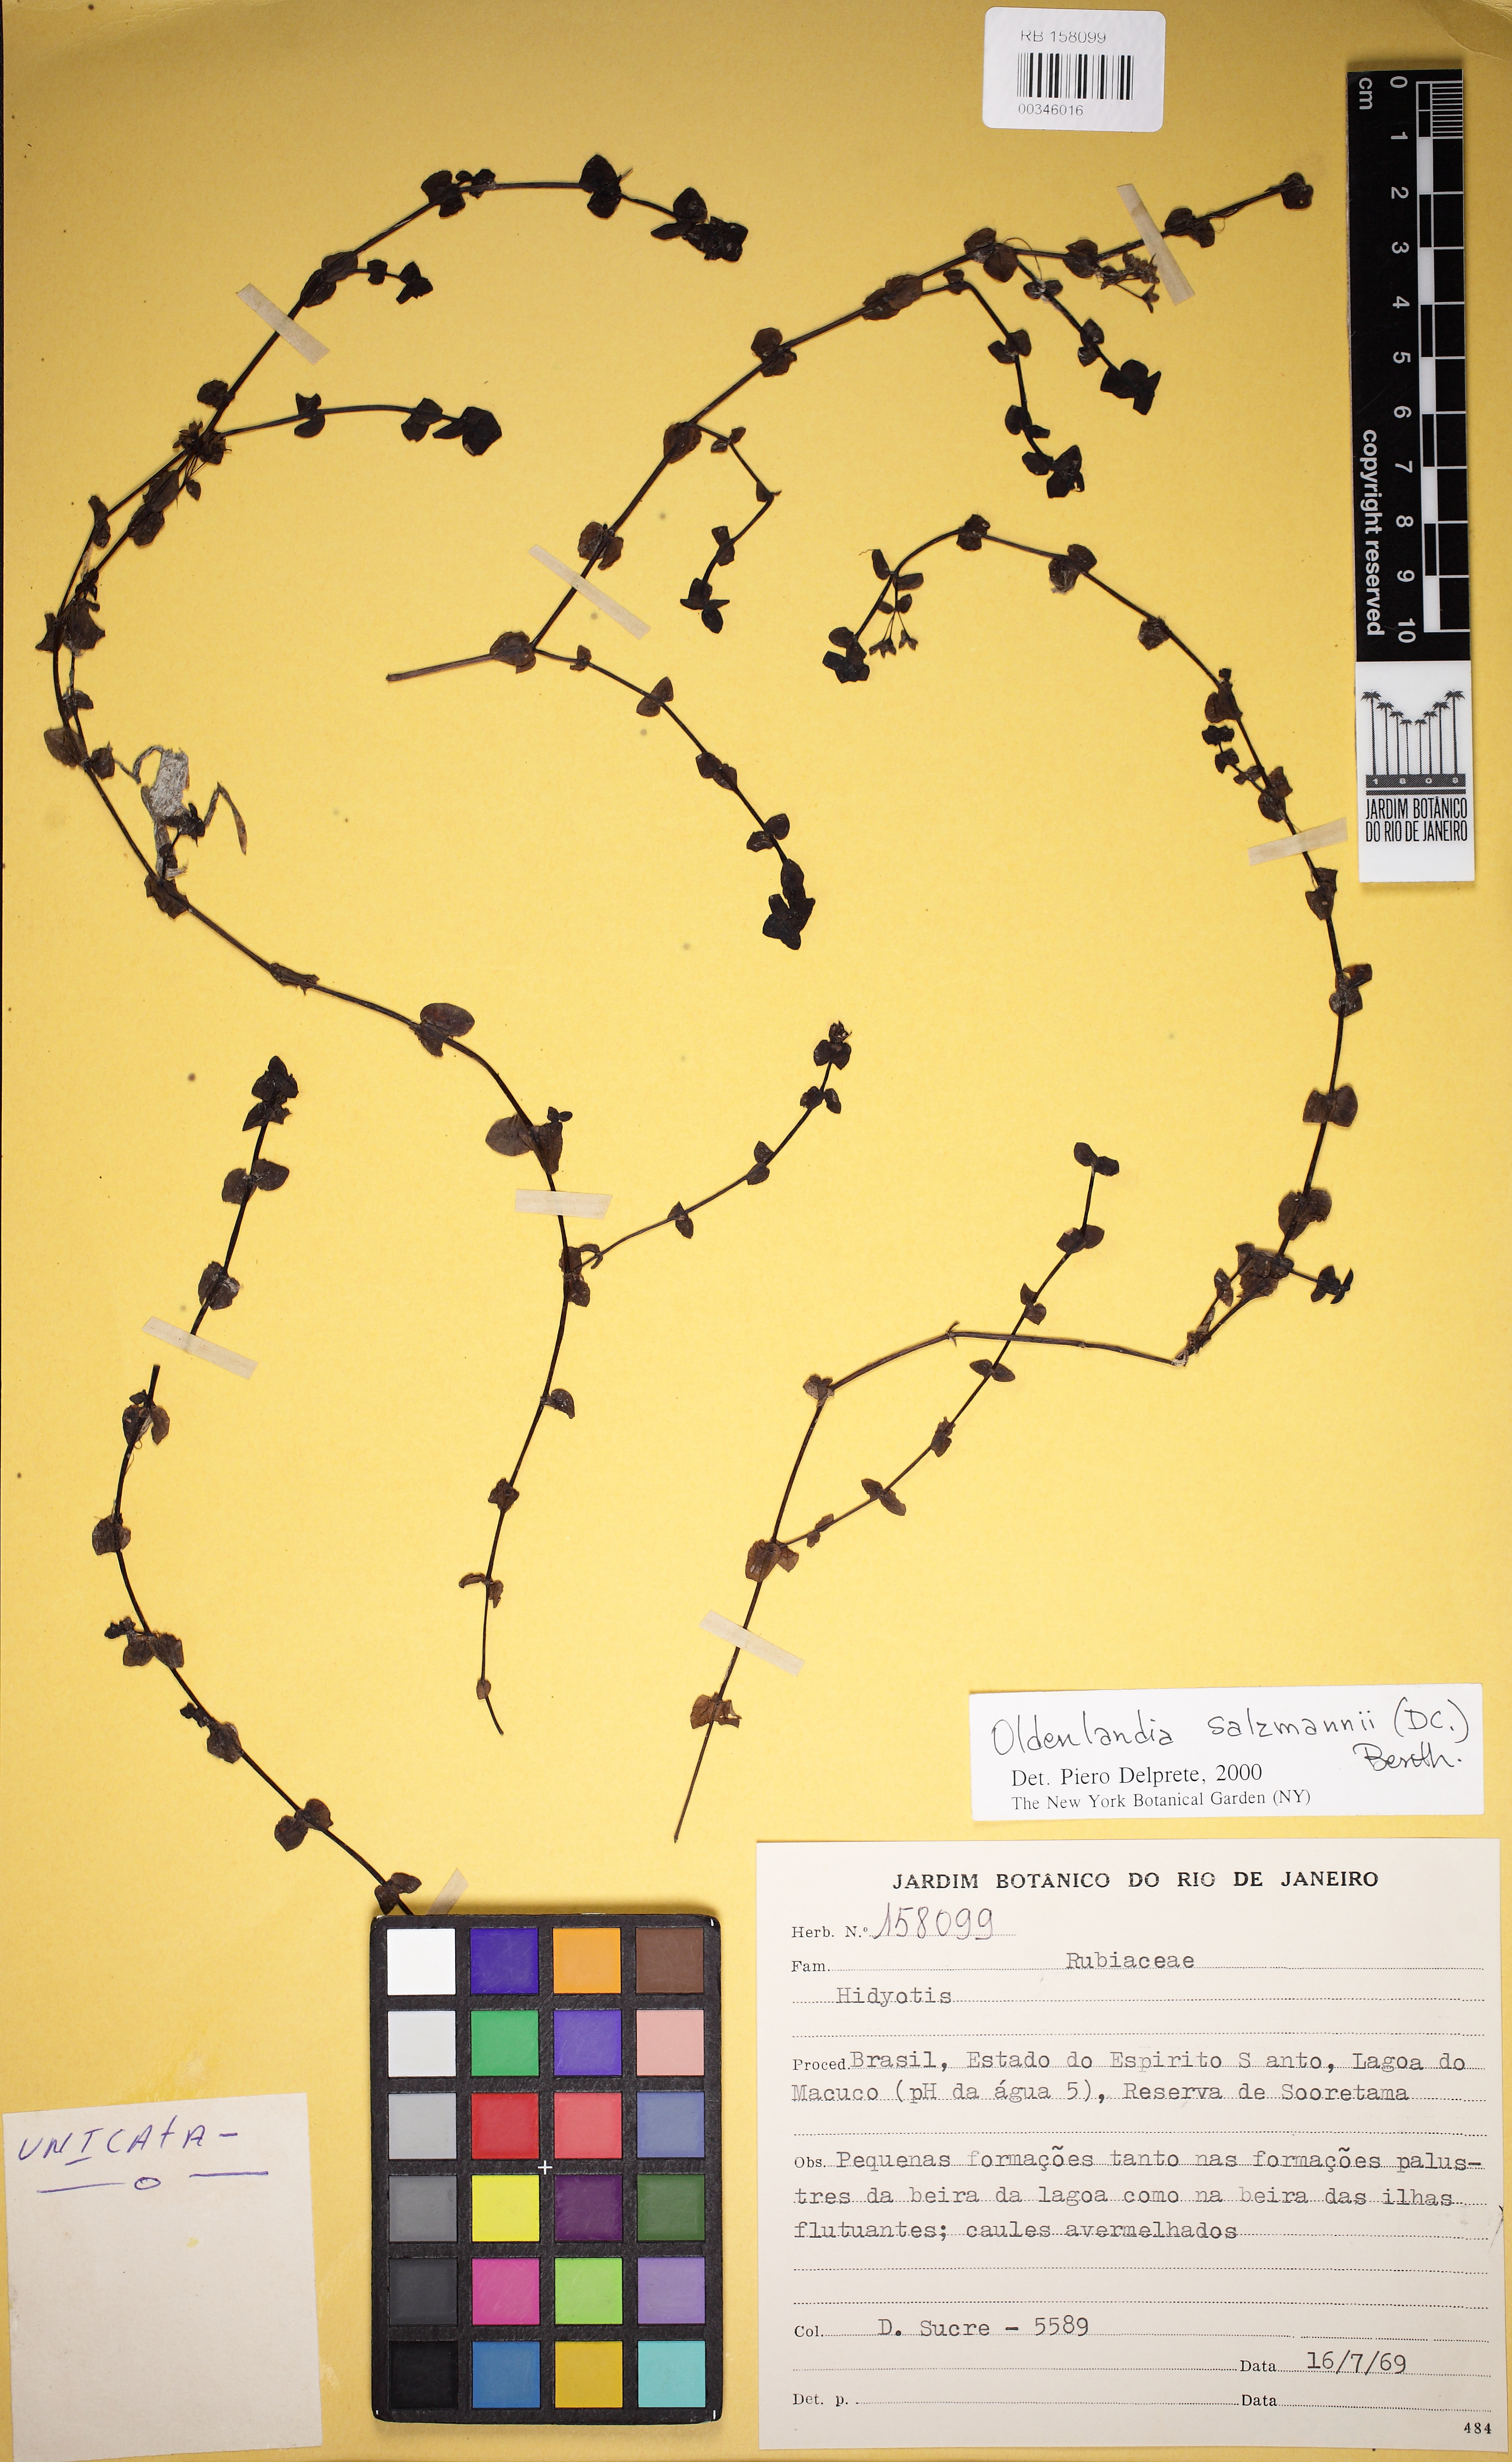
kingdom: Plantae
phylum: Tracheophyta
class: Magnoliopsida
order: Gentianales
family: Rubiaceae
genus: Oldenlandia
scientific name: Oldenlandia salzmannii
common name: Salzmann's mille graines
